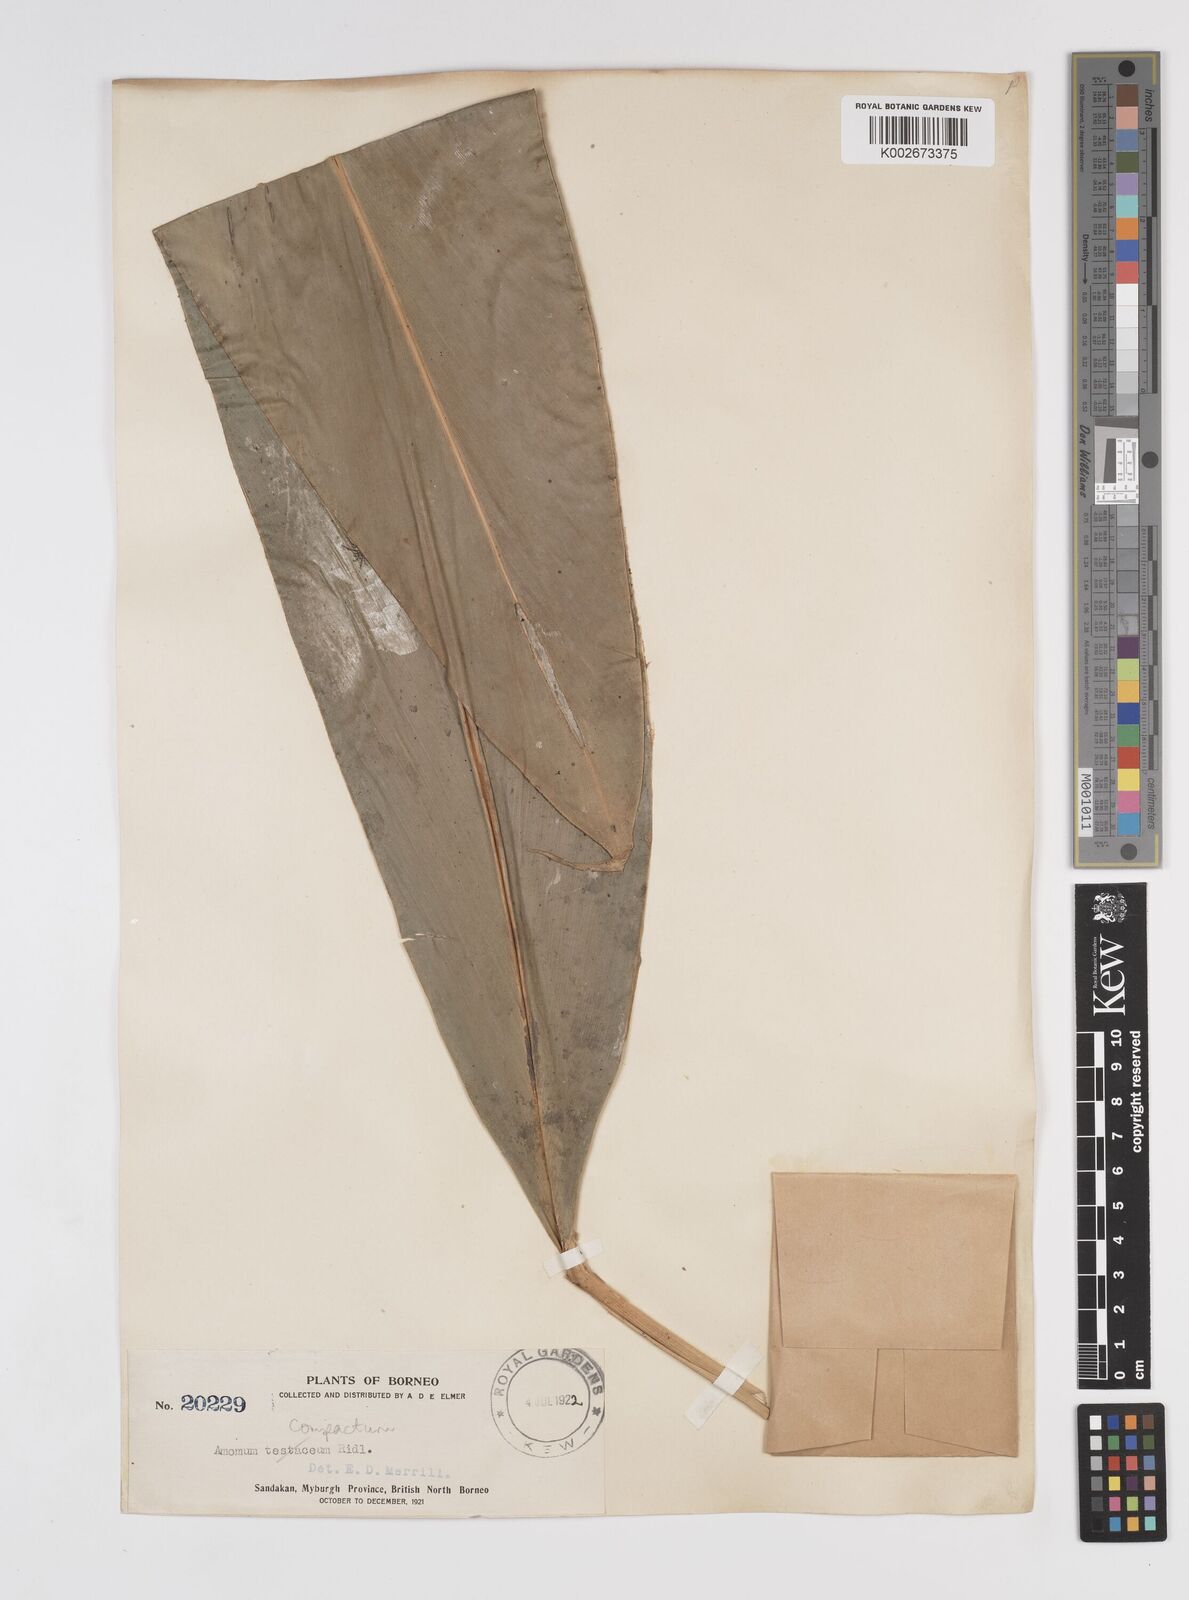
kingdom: Plantae
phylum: Tracheophyta
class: Liliopsida
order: Zingiberales
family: Zingiberaceae
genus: Wurfbainia
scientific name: Wurfbainia compacta
